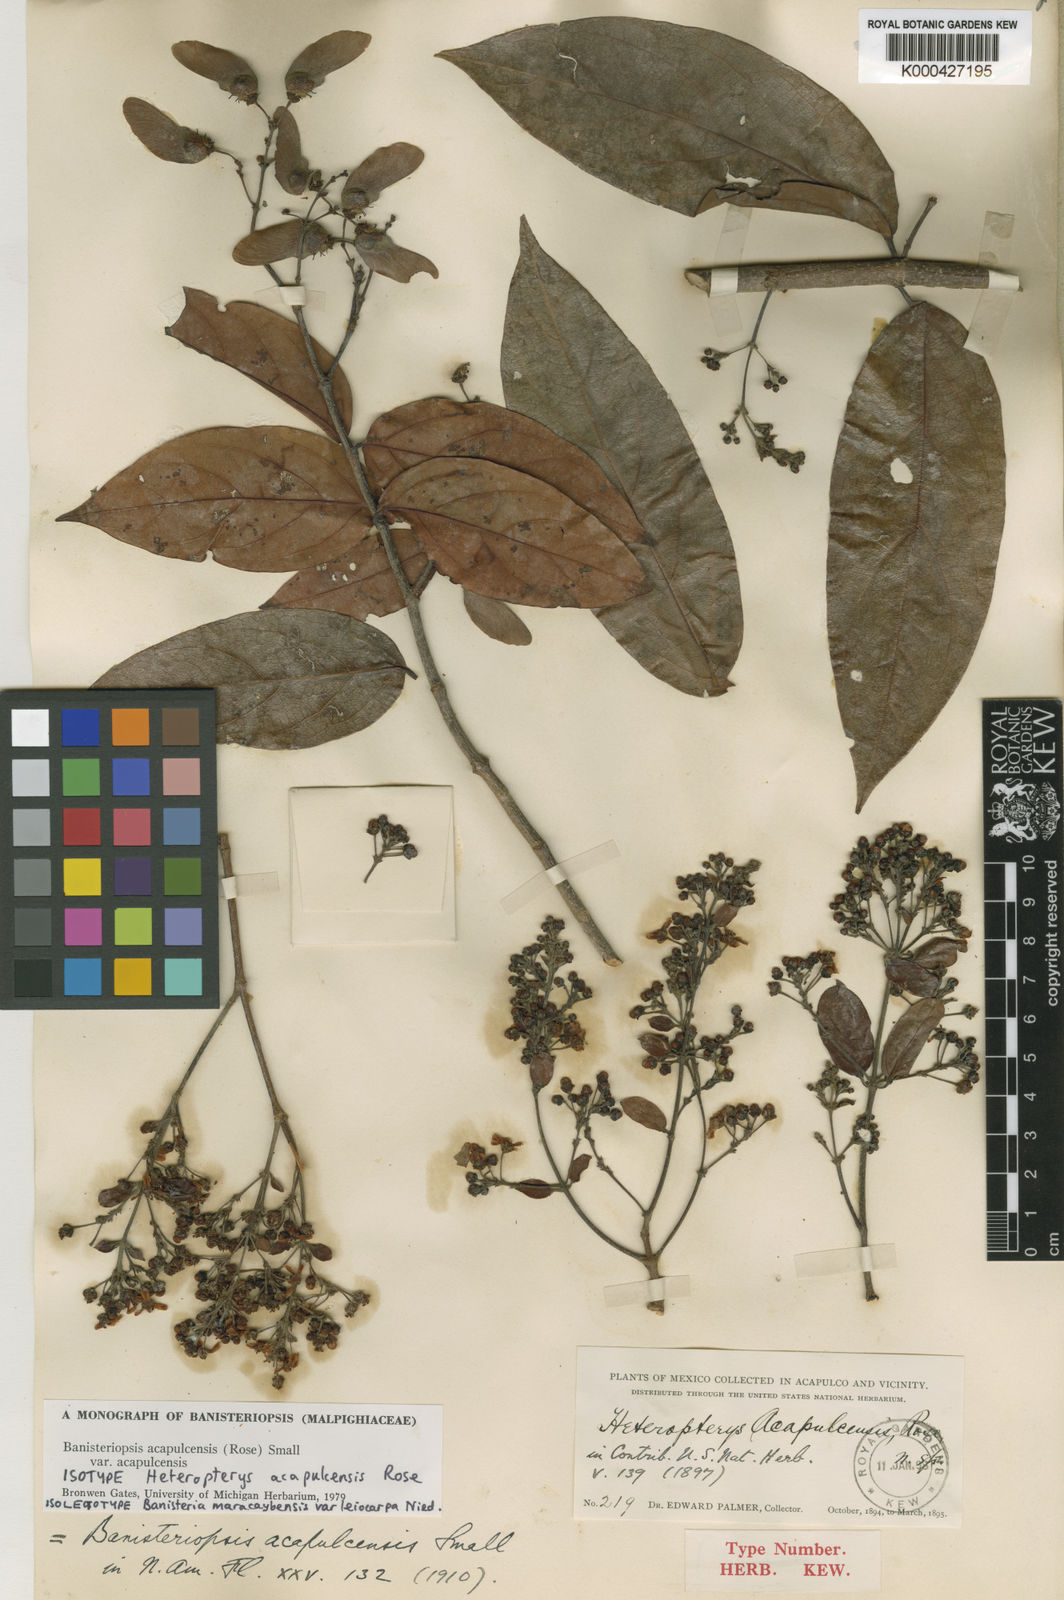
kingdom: Plantae
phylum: Tracheophyta
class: Magnoliopsida
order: Malpighiales
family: Malpighiaceae
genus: Bronwenia
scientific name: Bronwenia acapulcensis
